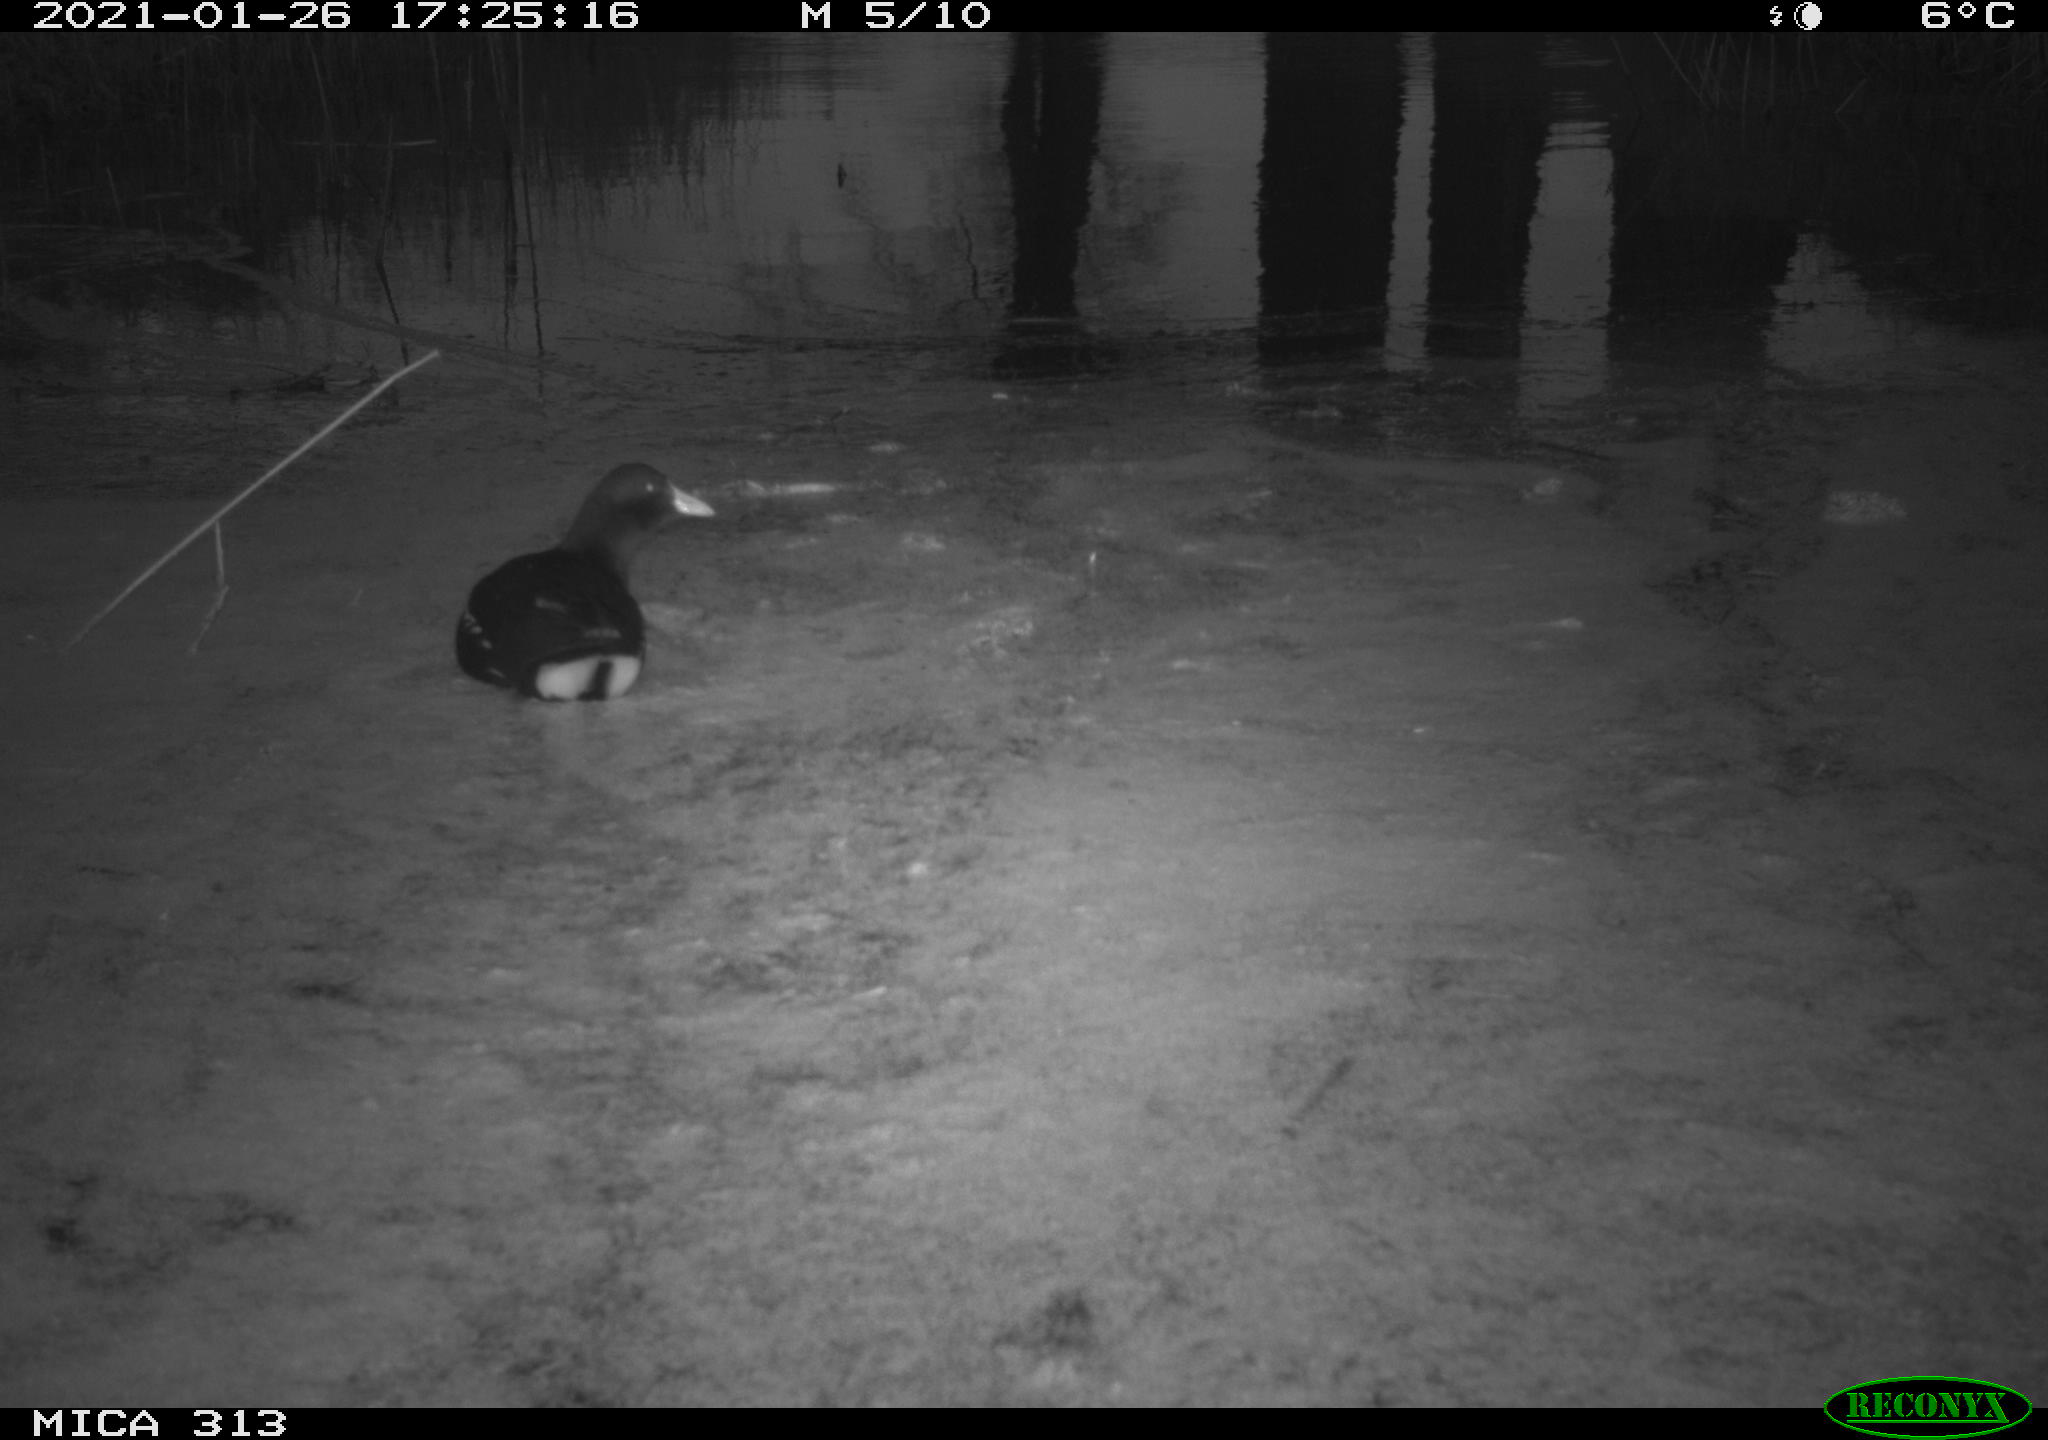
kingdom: Animalia
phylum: Chordata
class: Aves
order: Gruiformes
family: Rallidae
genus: Gallinula
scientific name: Gallinula chloropus
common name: Common moorhen
